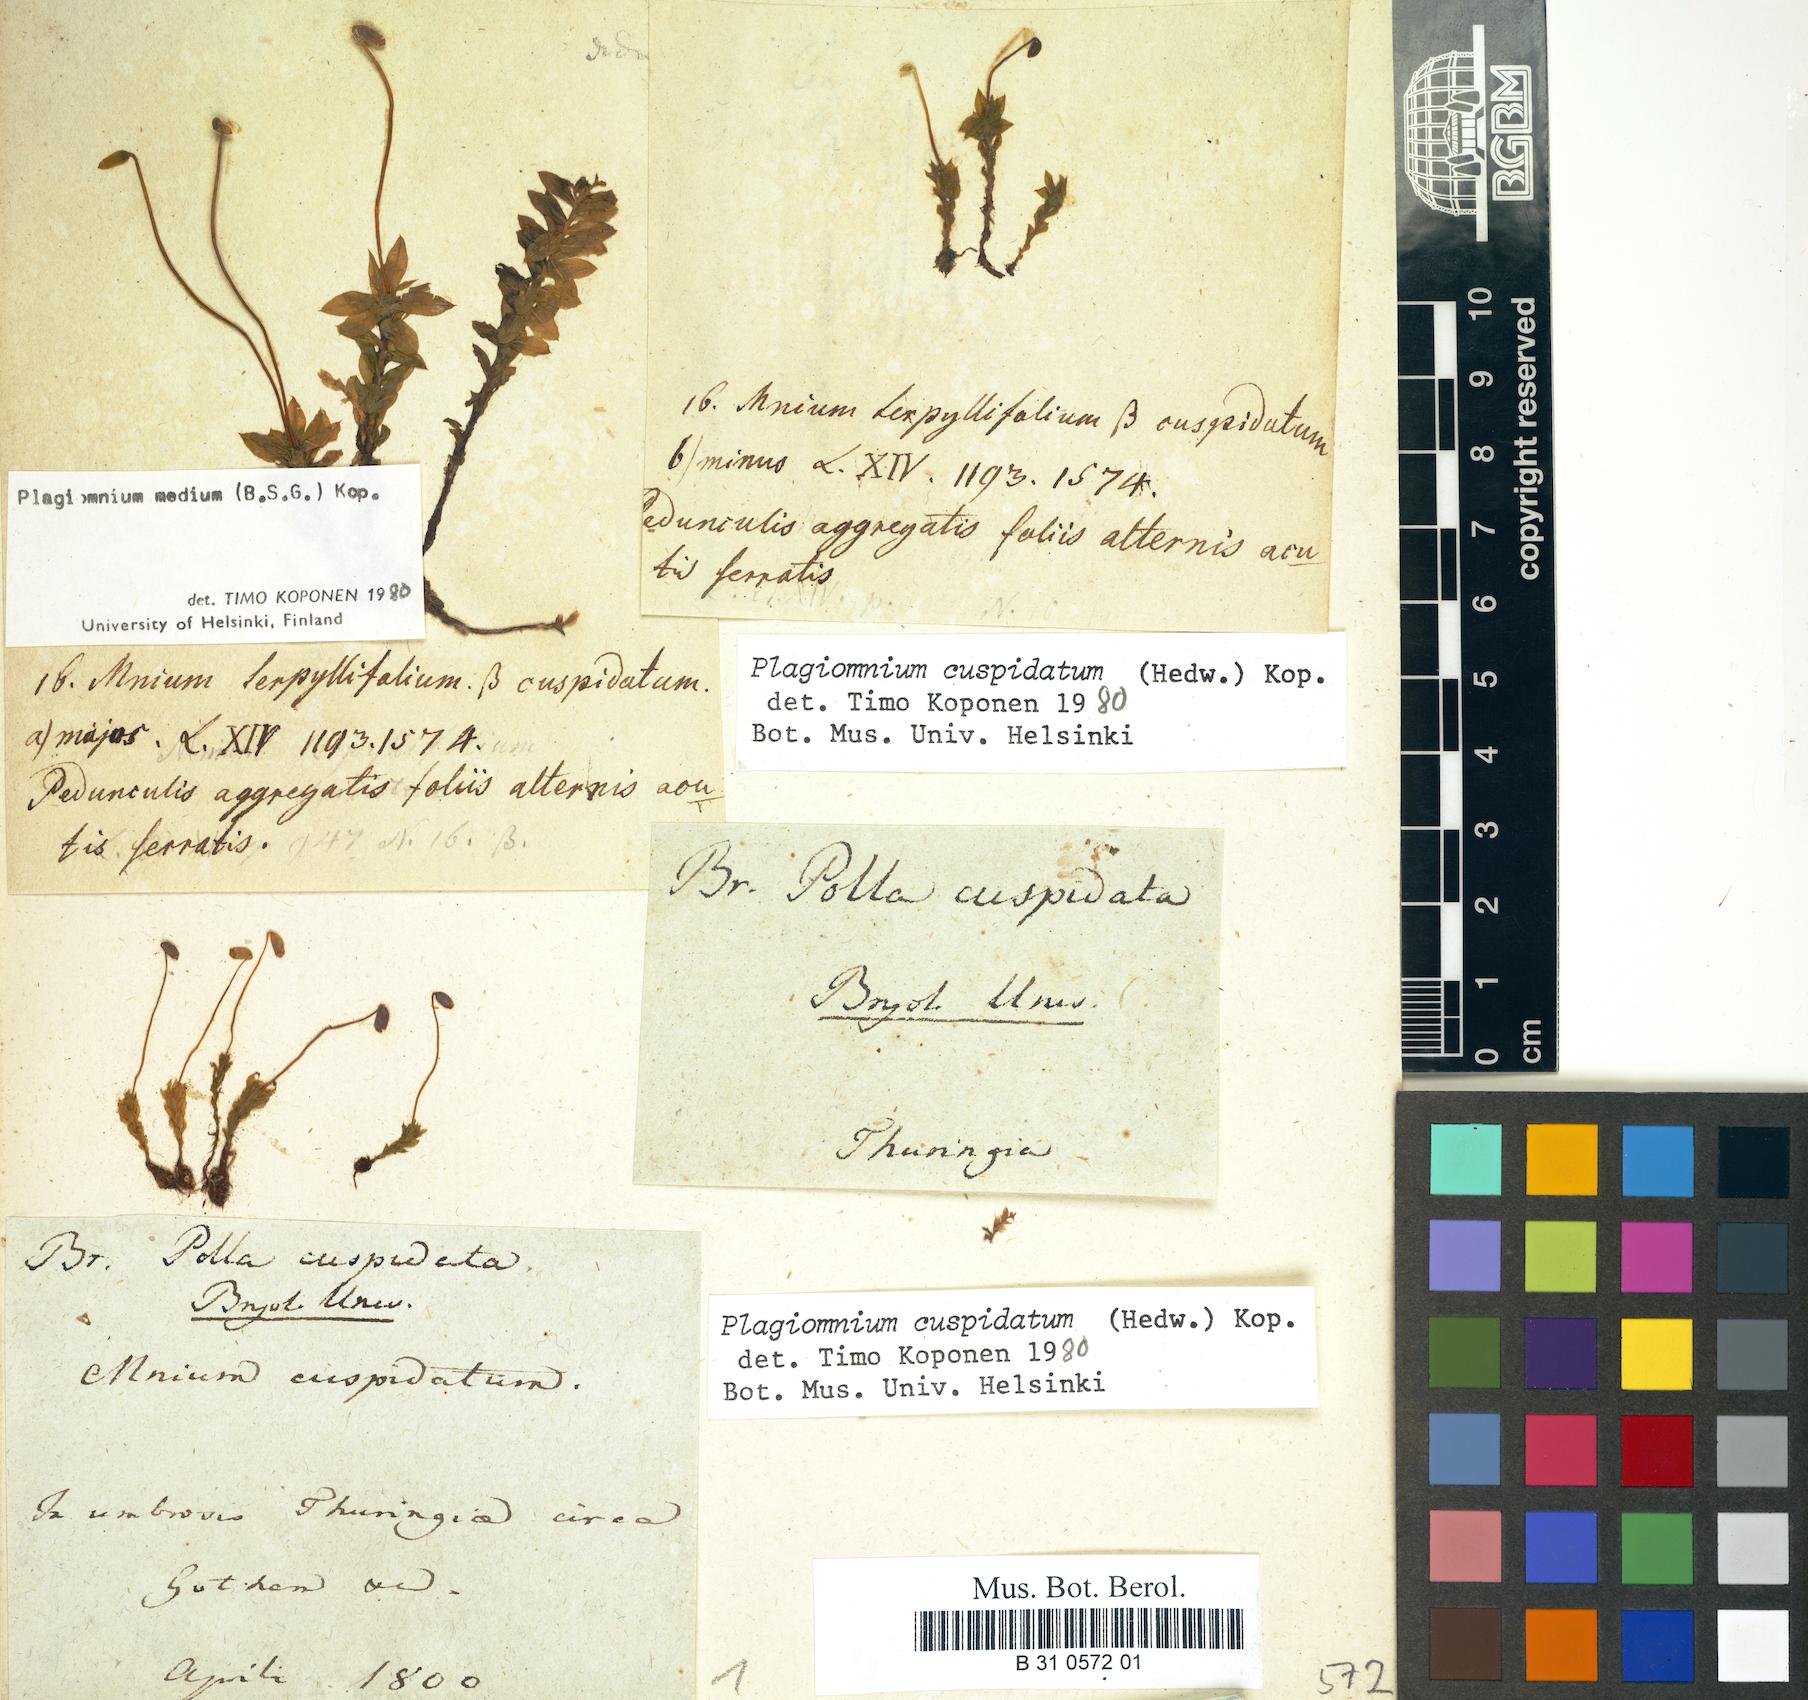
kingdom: Plantae
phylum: Bryophyta
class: Bryopsida
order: Bryales
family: Mniaceae
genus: Plagiomnium
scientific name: Plagiomnium cuspidatum
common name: Woodsy leafy moss
